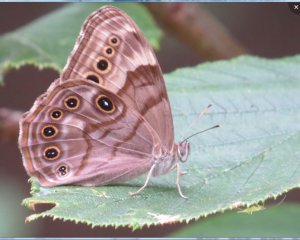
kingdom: Animalia
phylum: Arthropoda
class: Insecta
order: Lepidoptera
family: Nymphalidae
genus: Lethe
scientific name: Lethe anthedon
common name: Northern Pearly-Eye
